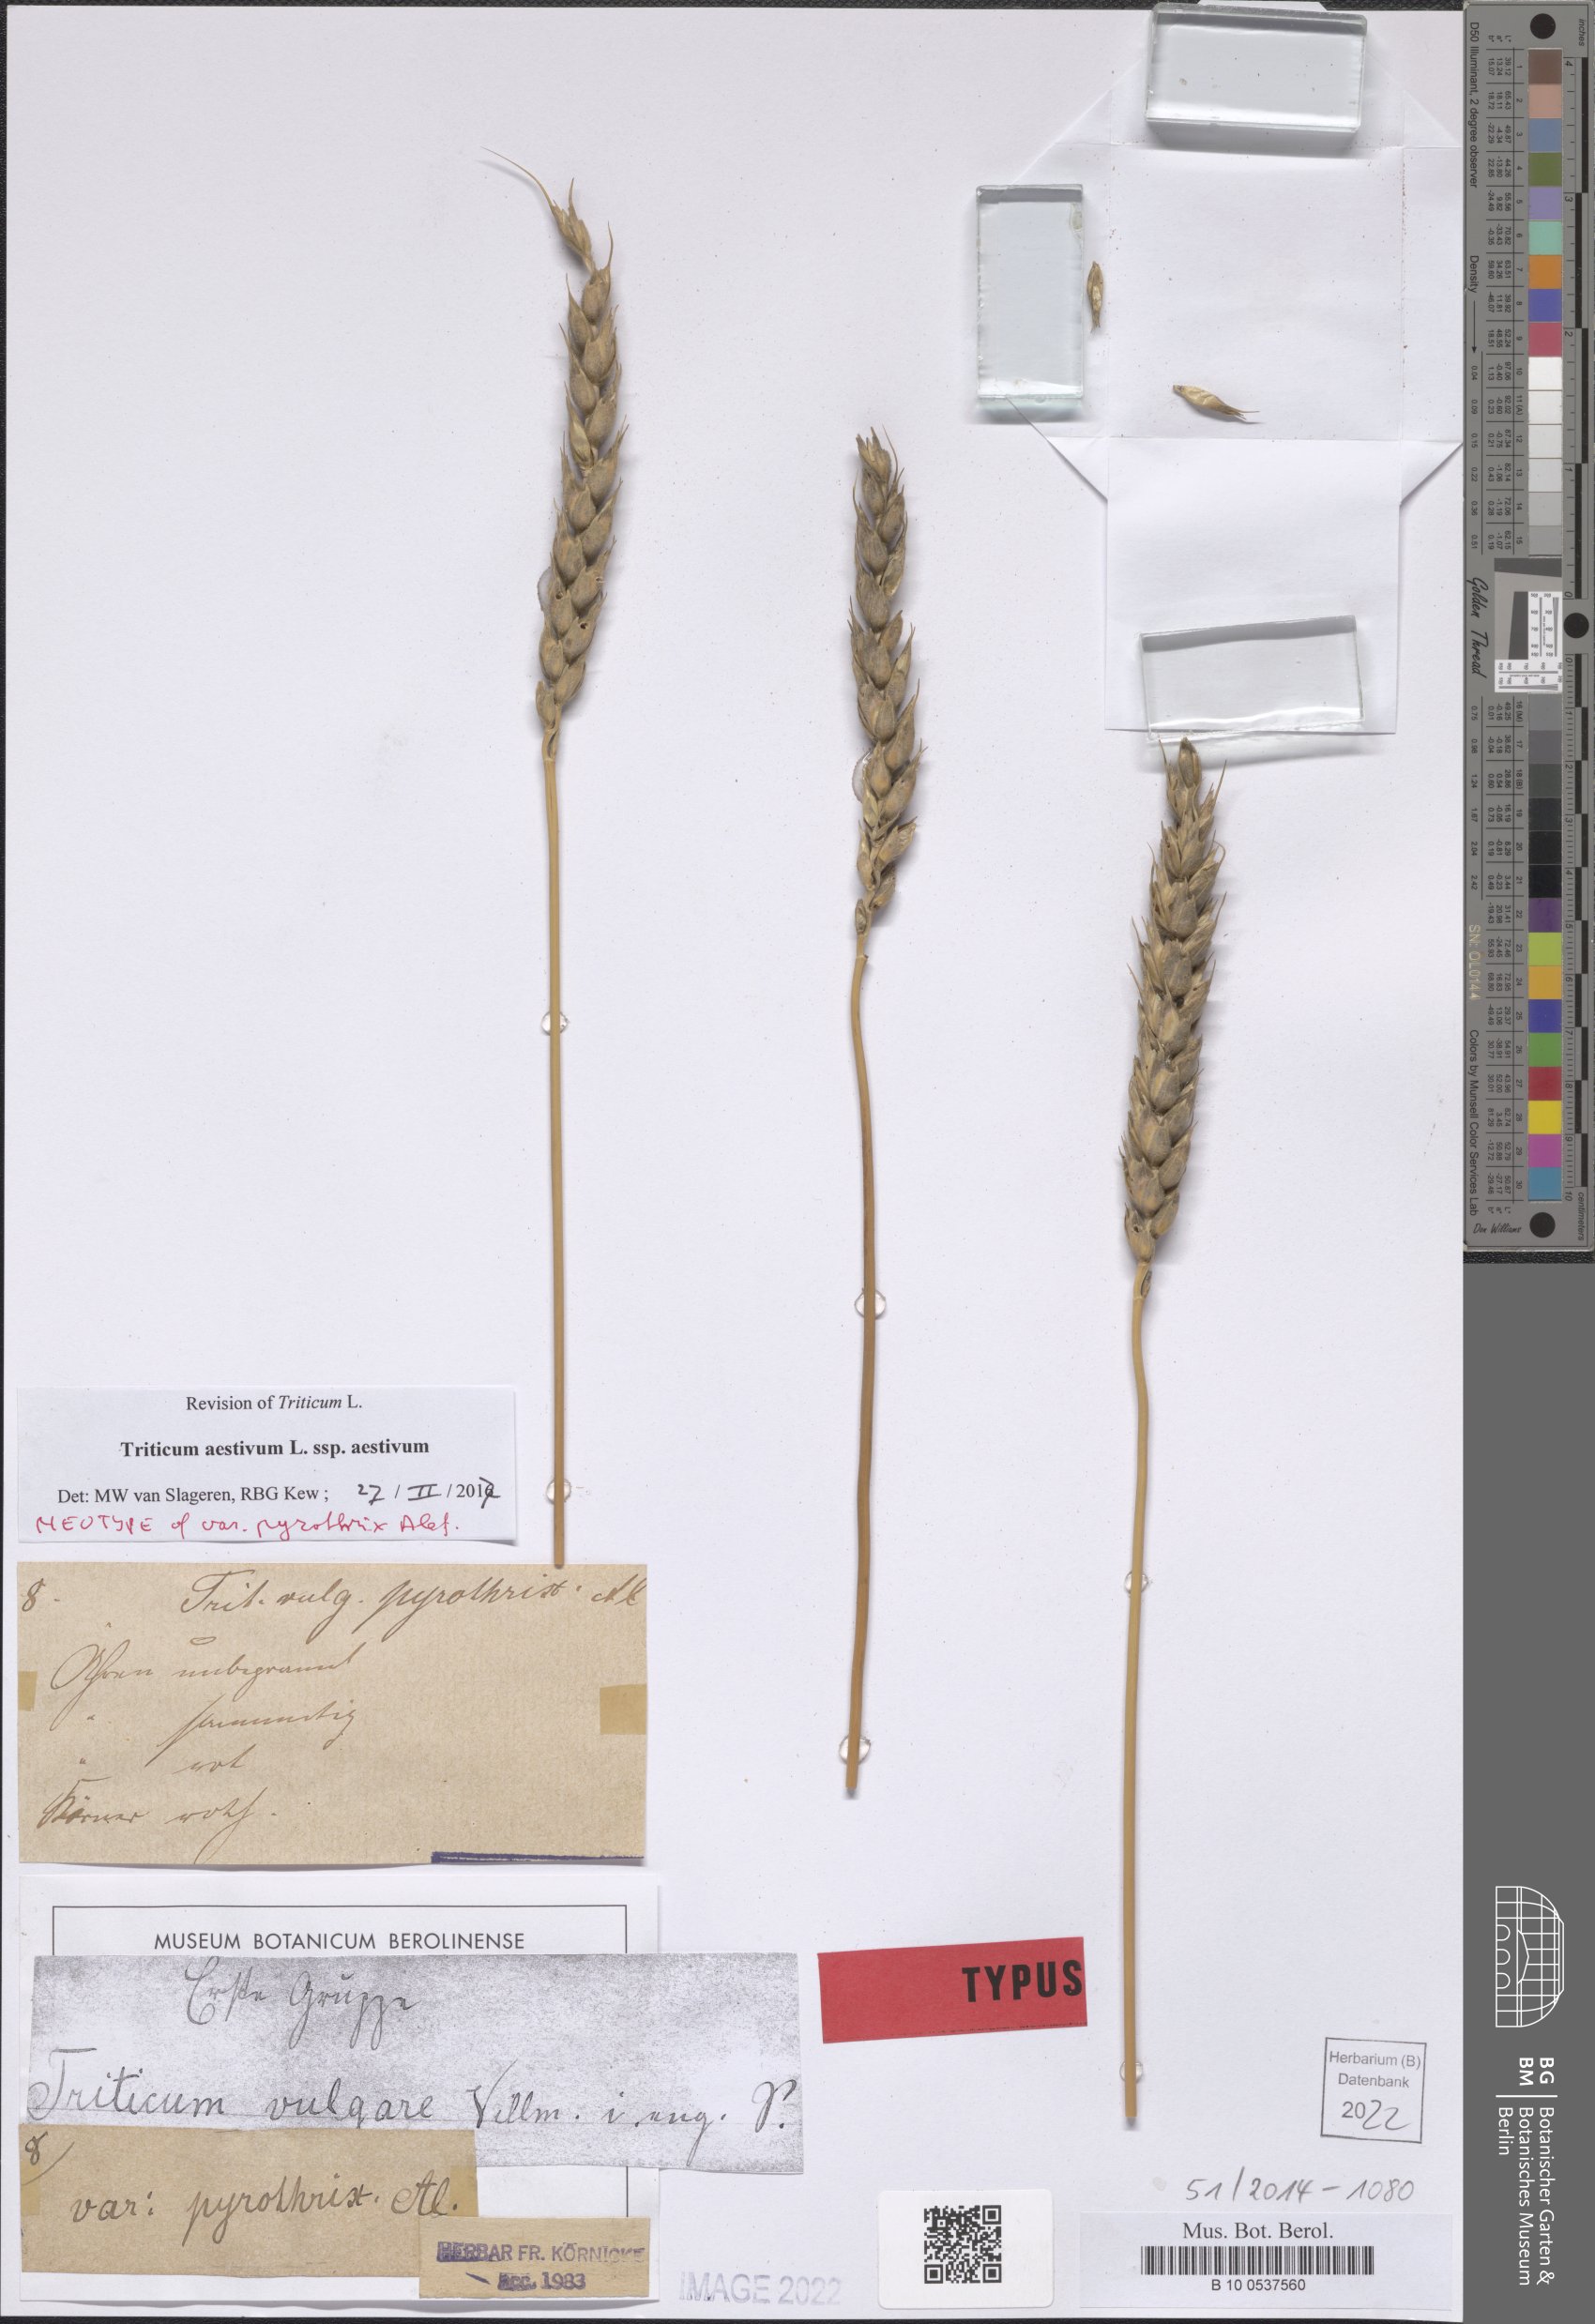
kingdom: Plantae
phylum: Tracheophyta
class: Liliopsida
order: Poales
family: Poaceae
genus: Triticum
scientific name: Triticum aestivum
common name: Common wheat
